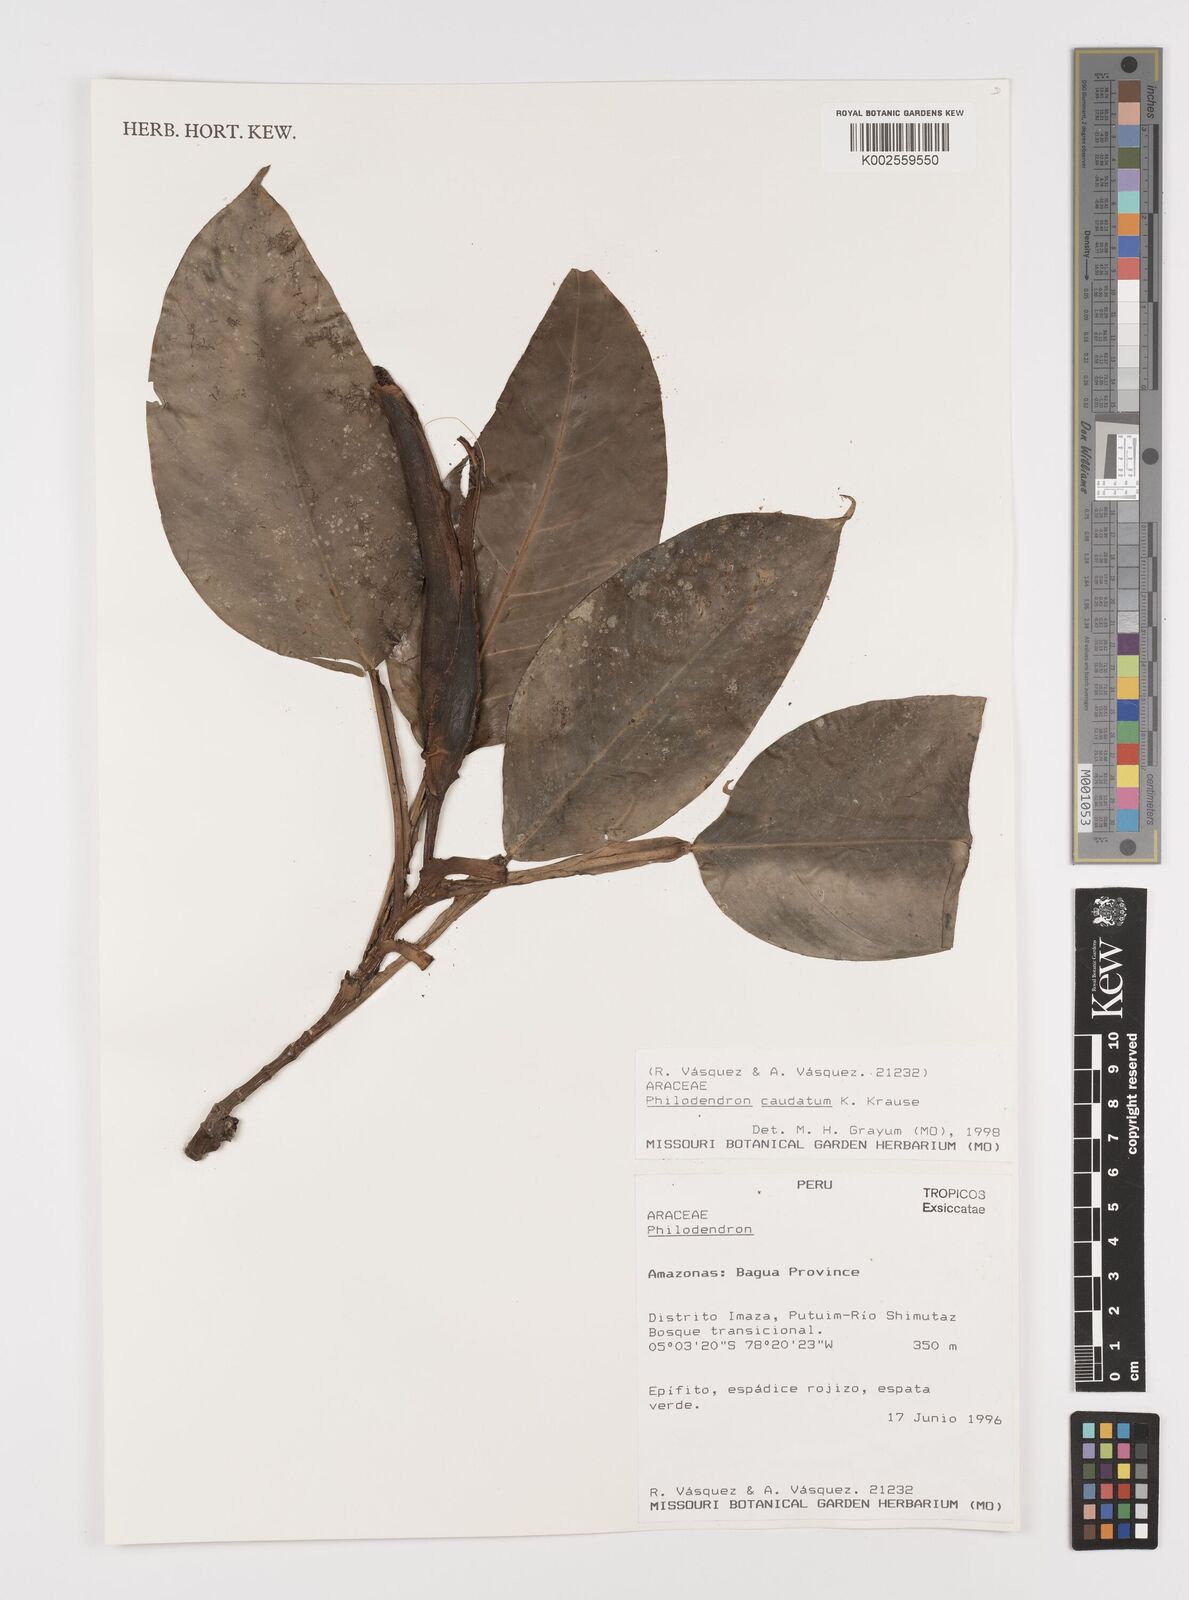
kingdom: Plantae
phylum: Tracheophyta
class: Liliopsida
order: Alismatales
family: Araceae
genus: Philodendron
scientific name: Philodendron caudatum
